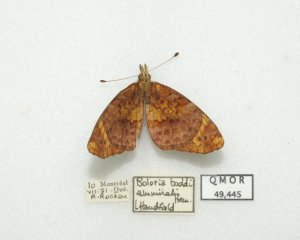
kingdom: Animalia
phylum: Arthropoda
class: Insecta
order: Lepidoptera
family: Nymphalidae
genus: Clossiana
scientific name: Clossiana toddi
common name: Meadow Fritillary
